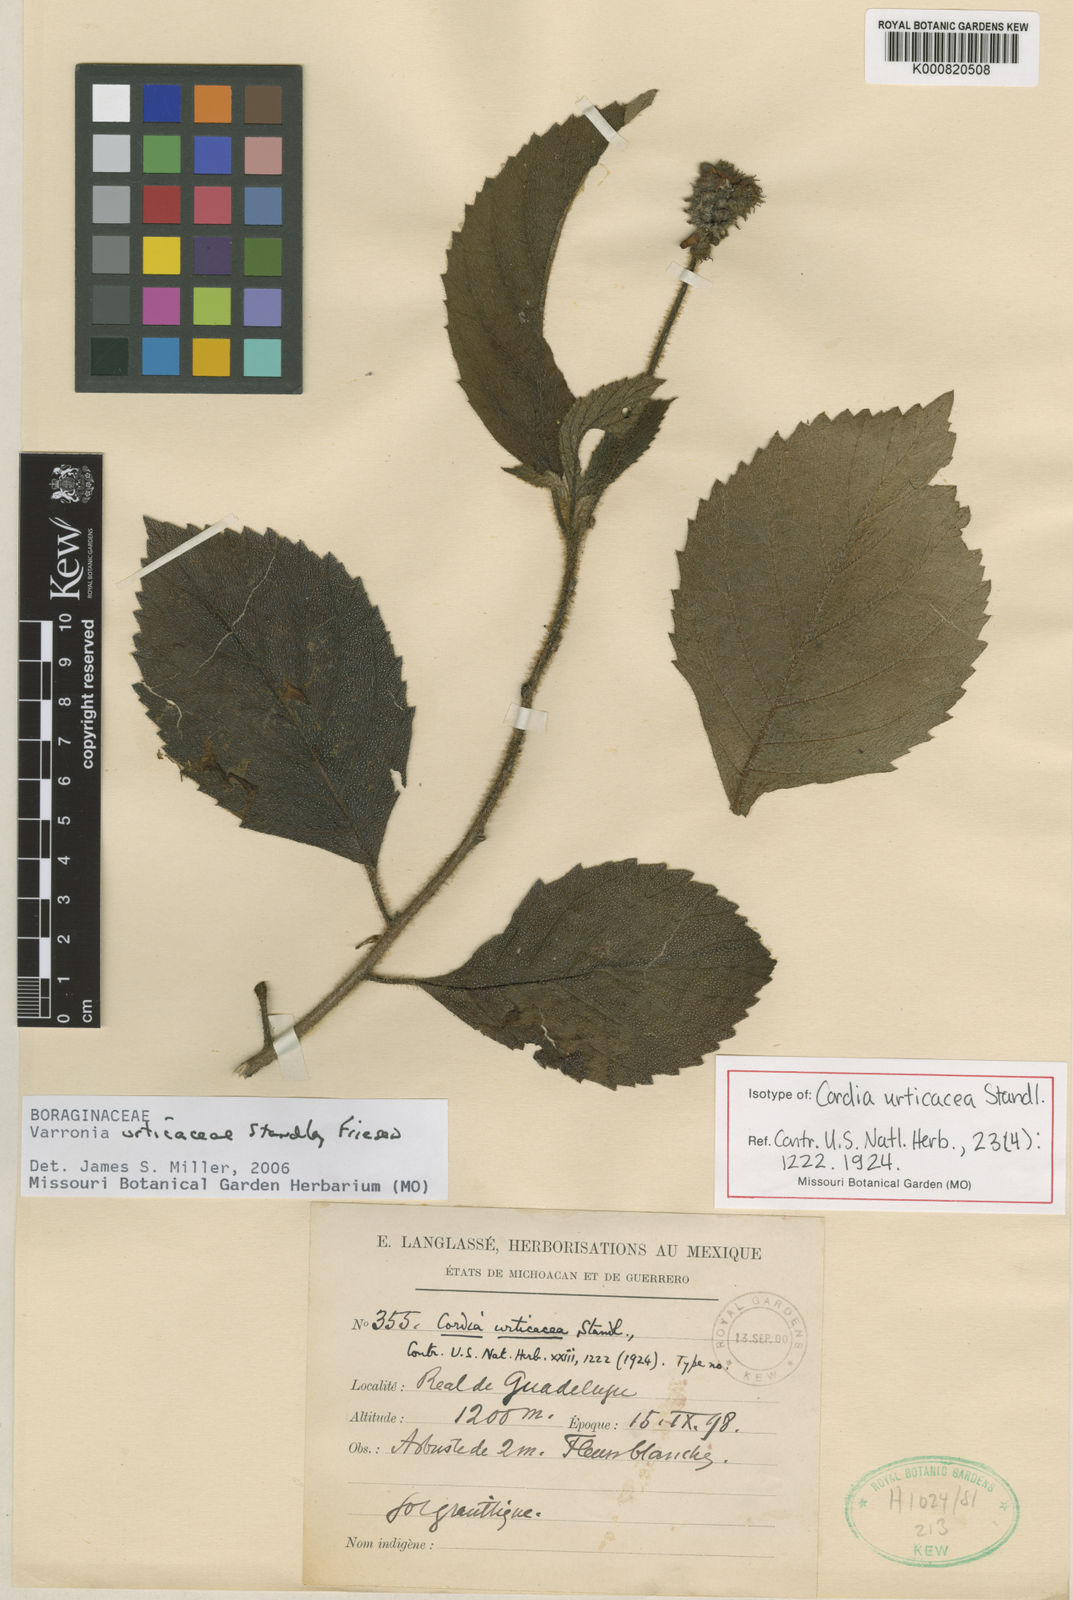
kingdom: Plantae
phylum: Tracheophyta
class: Magnoliopsida
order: Boraginales
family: Cordiaceae
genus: Varronia
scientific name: Varronia oaxacana
